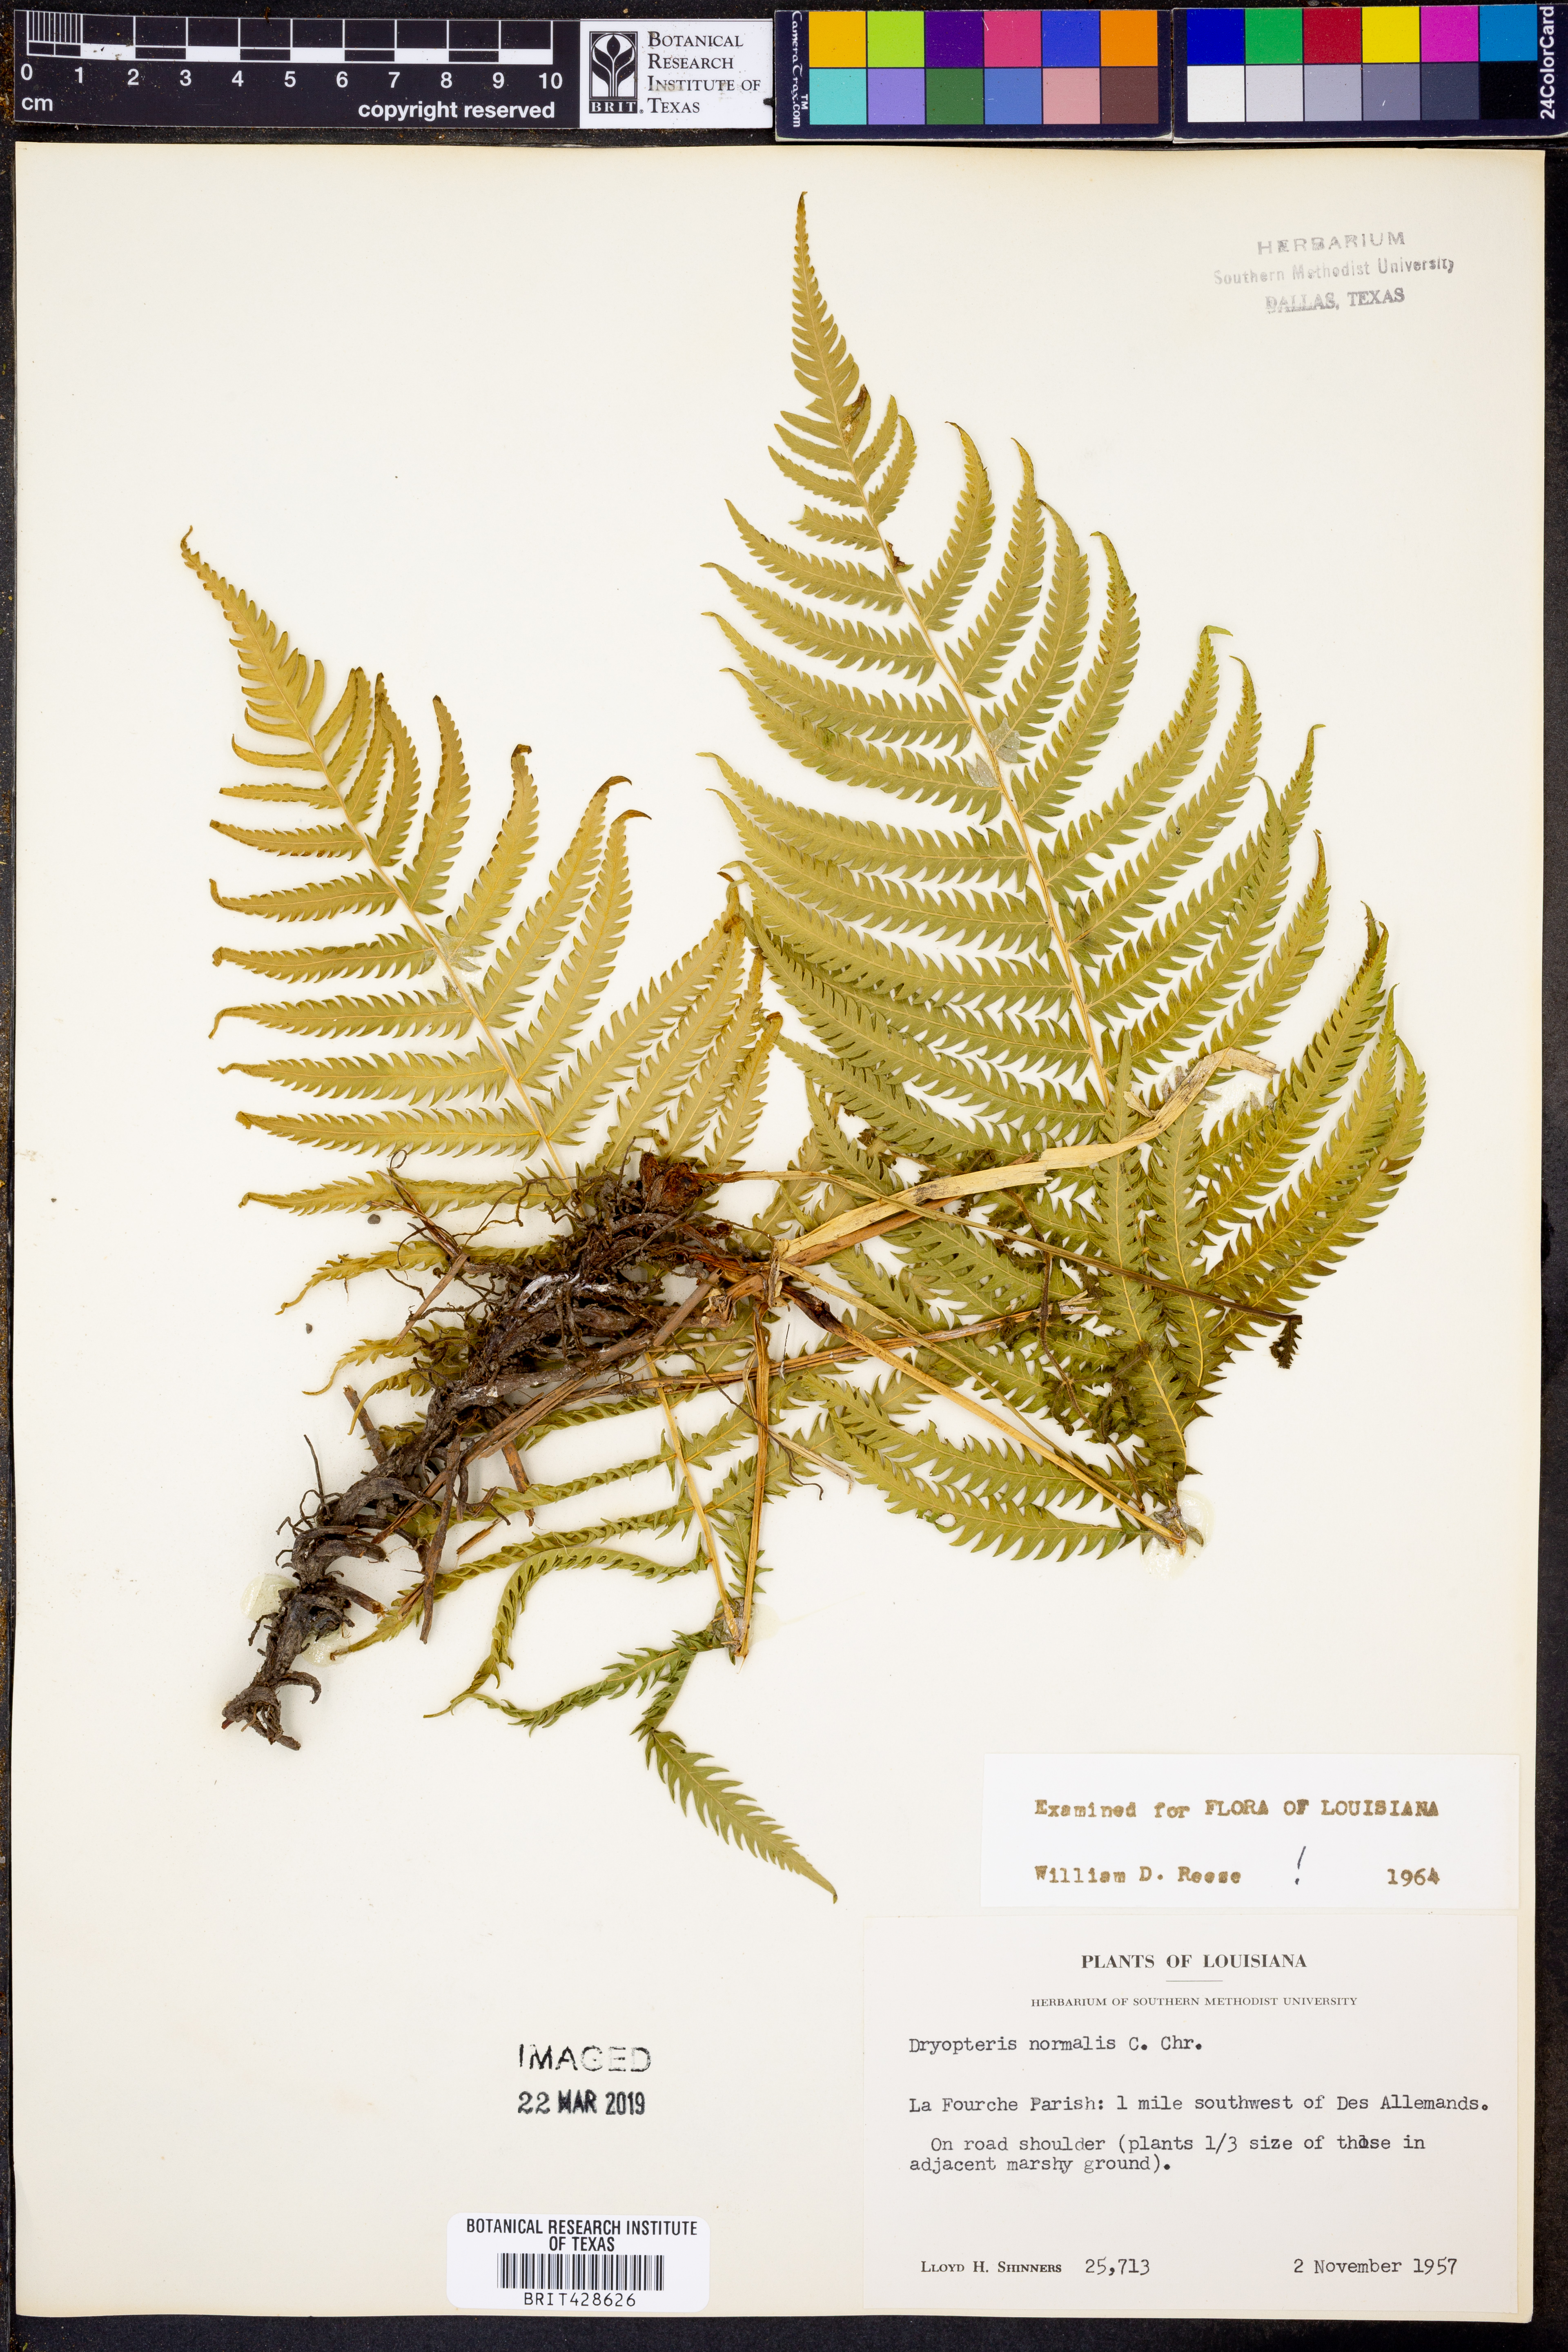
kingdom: Plantae
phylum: Tracheophyta
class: Polypodiopsida
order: Polypodiales
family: Thelypteridaceae
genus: Pelazoneuron
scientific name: Pelazoneuron kunthii
